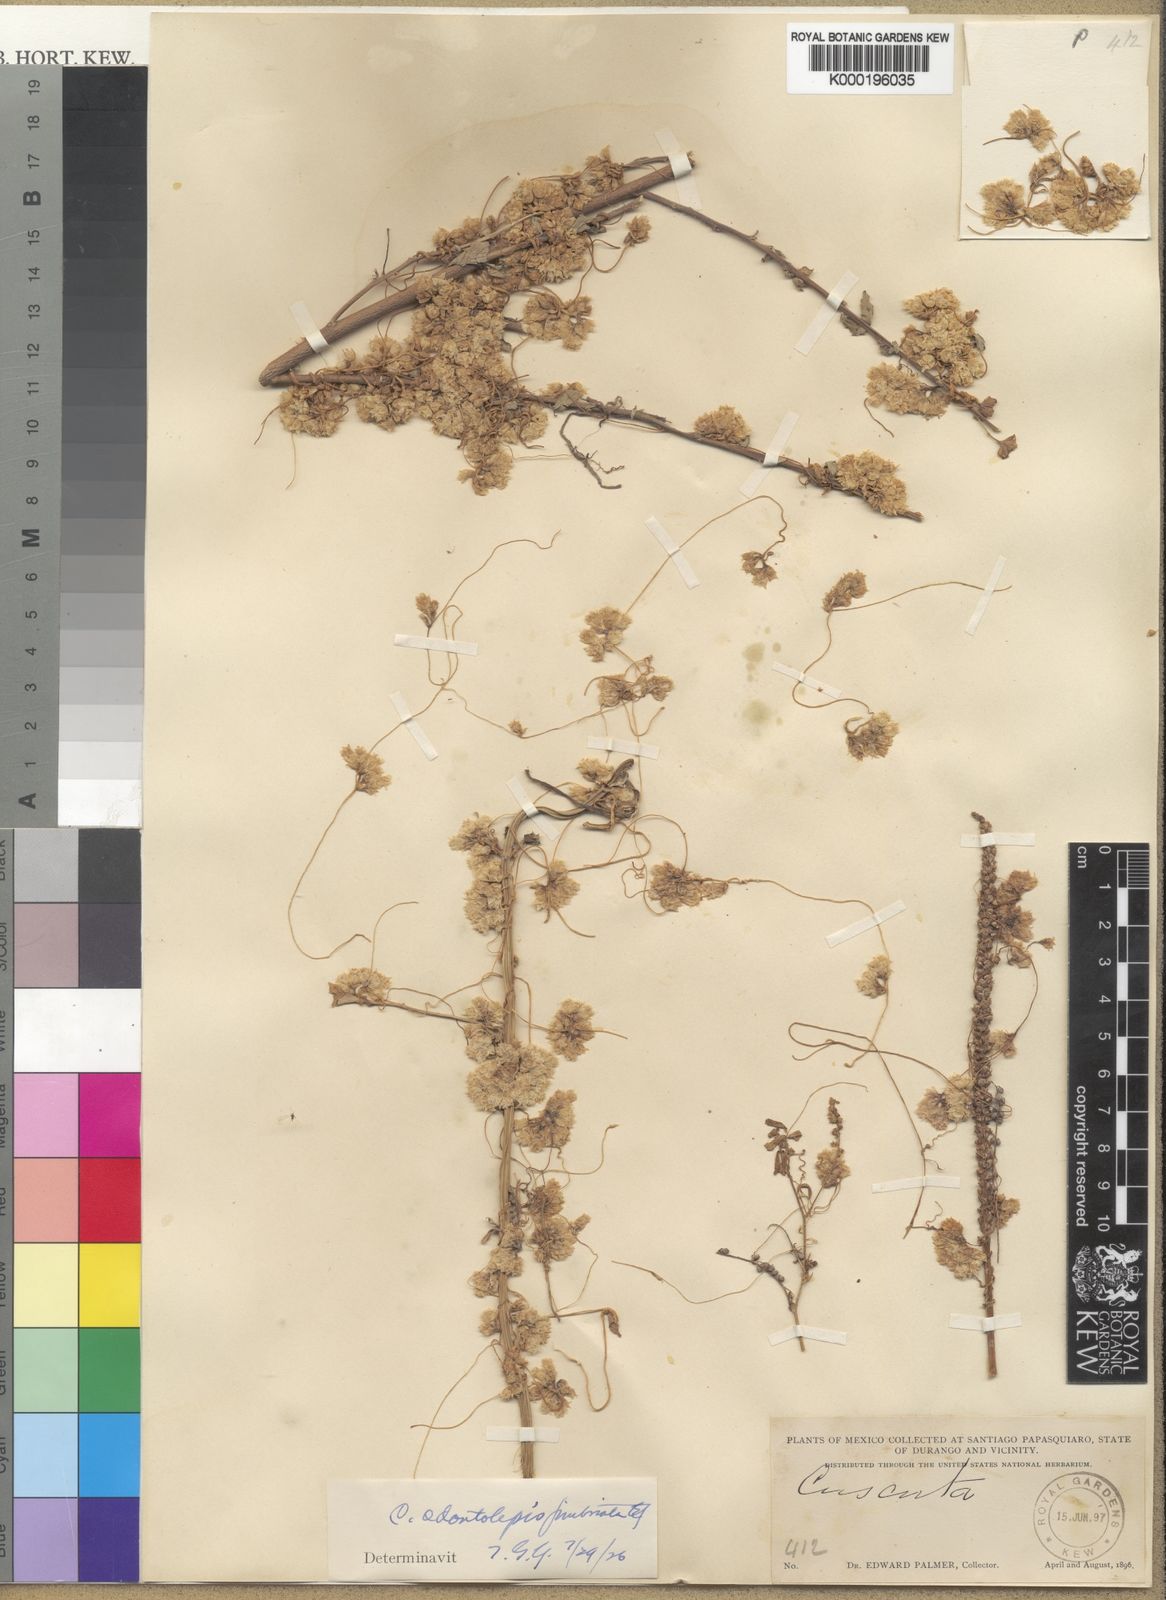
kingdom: Plantae
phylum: Tracheophyta
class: Magnoliopsida
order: Solanales
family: Convolvulaceae
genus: Cuscuta
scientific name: Cuscuta costaricensis
